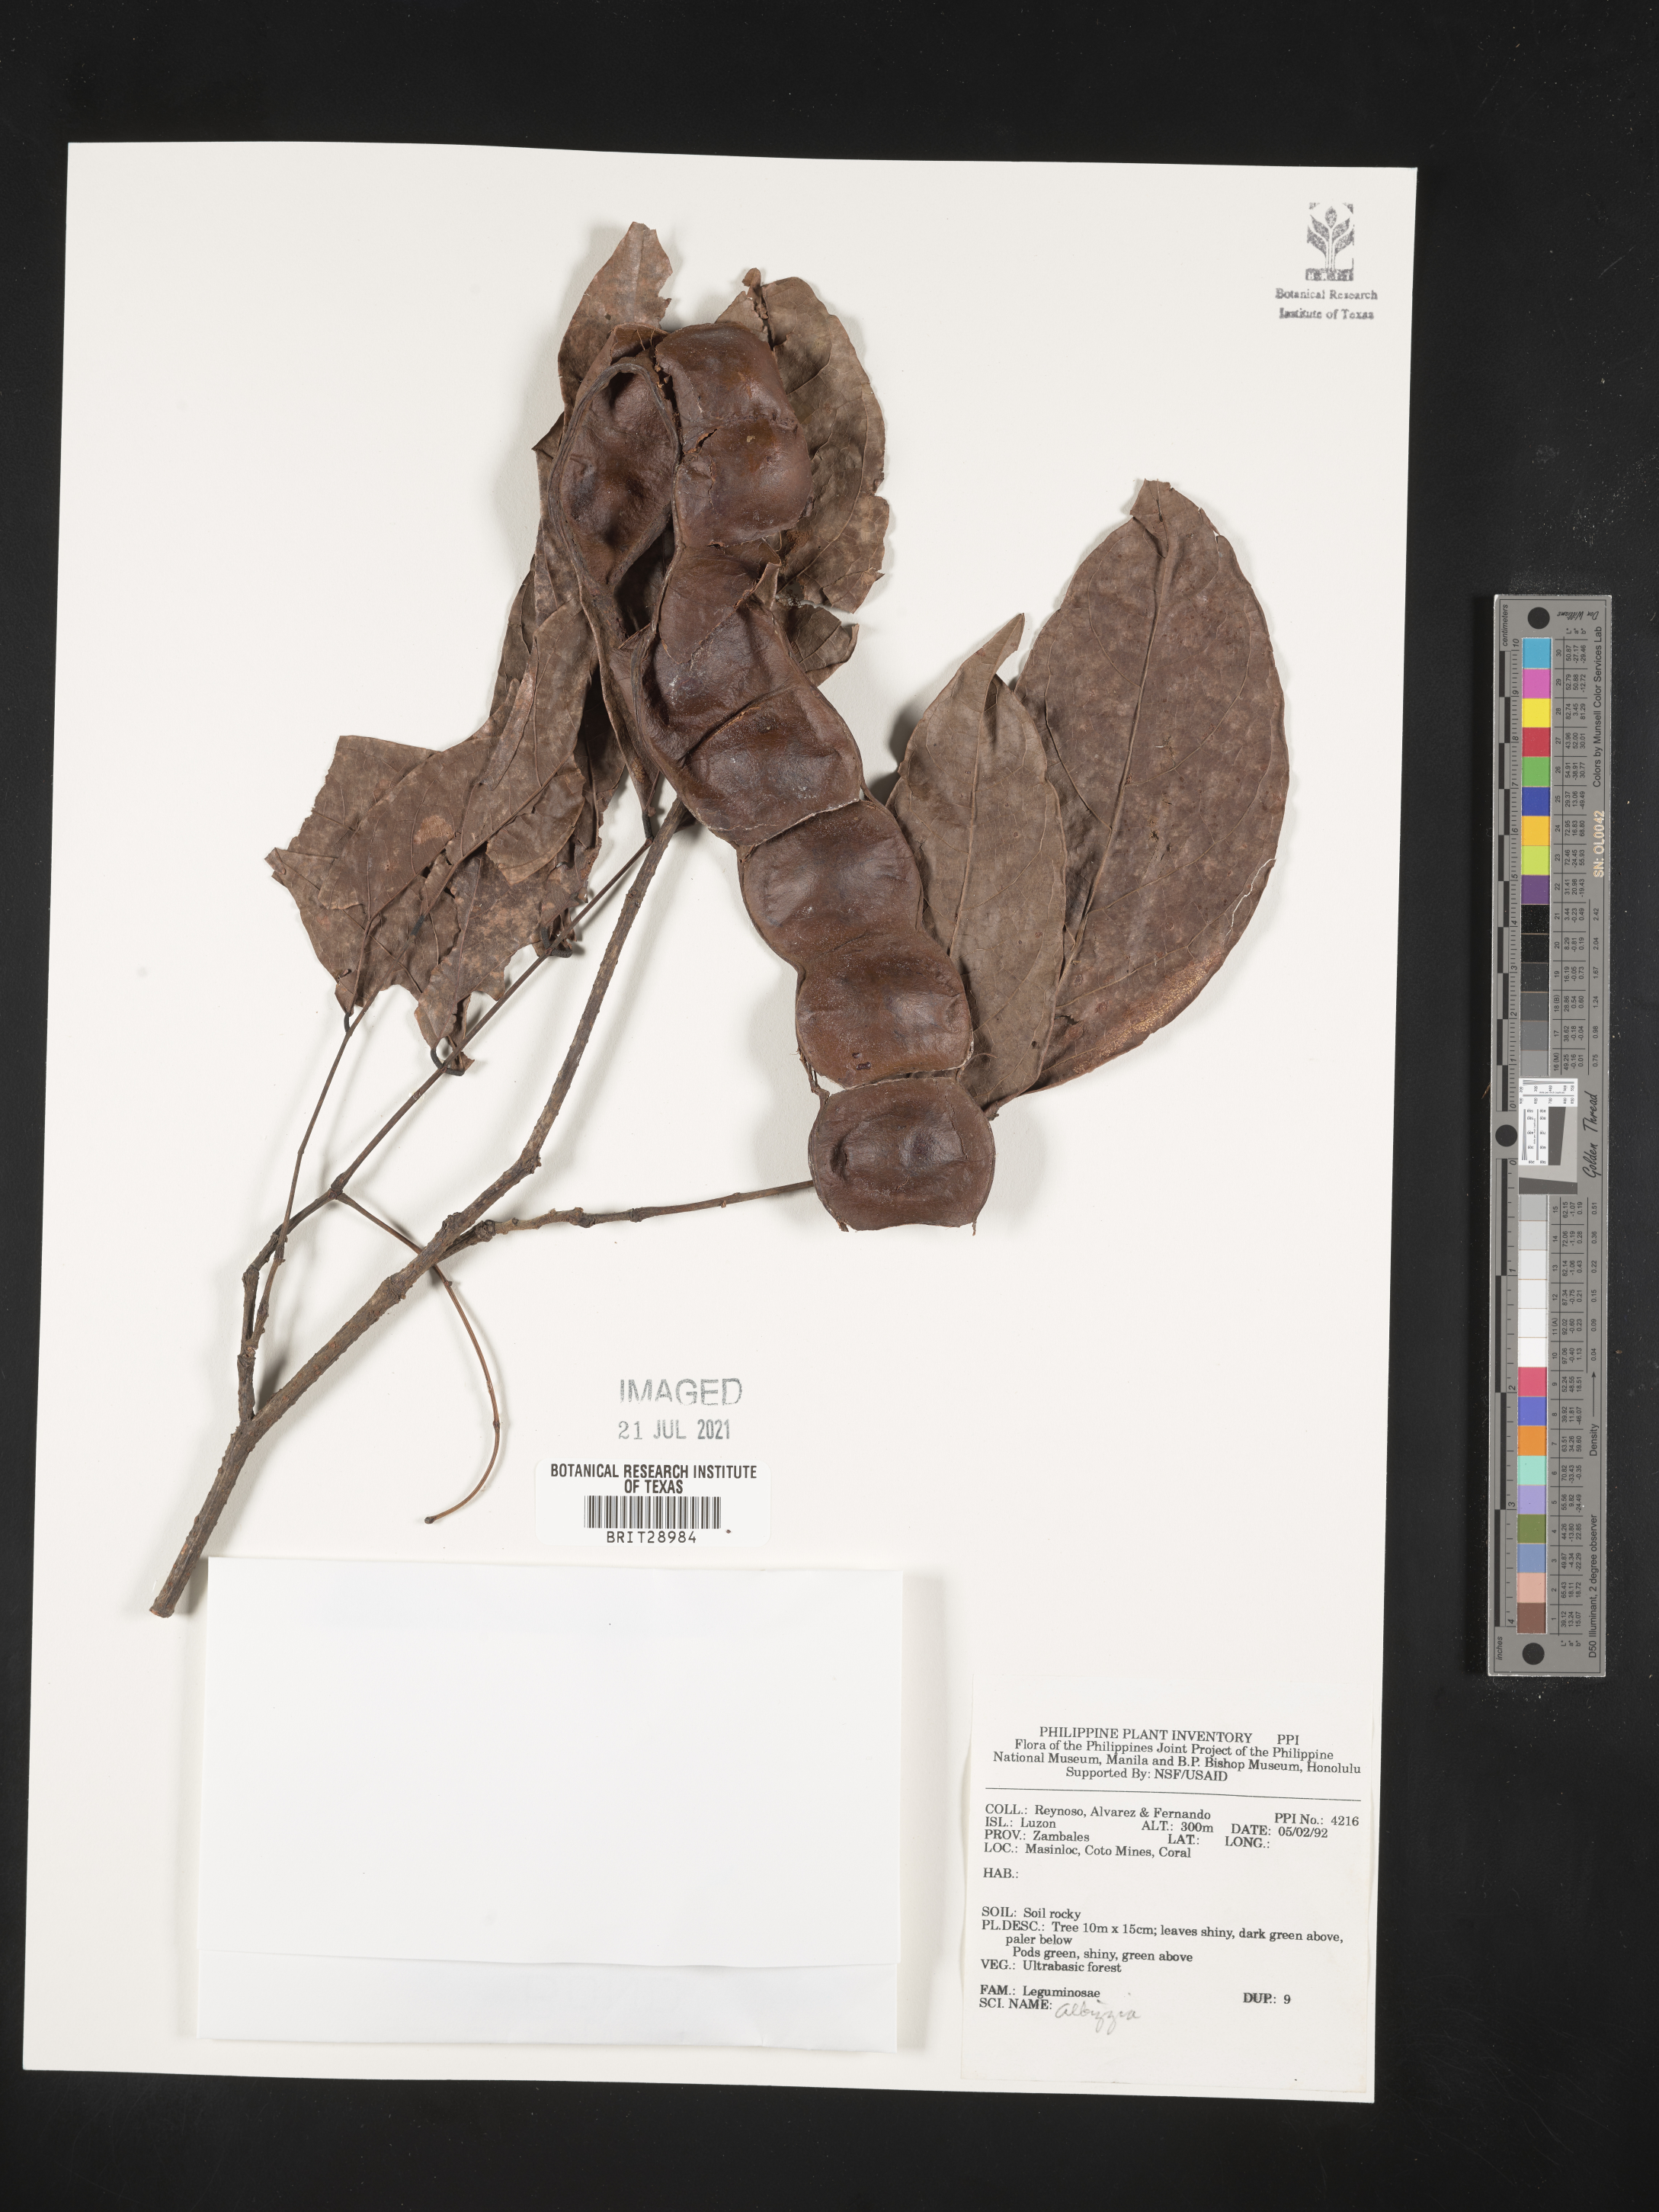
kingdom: Plantae
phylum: Tracheophyta
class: Magnoliopsida
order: Fabales
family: Fabaceae
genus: Albizia
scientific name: Albizia
